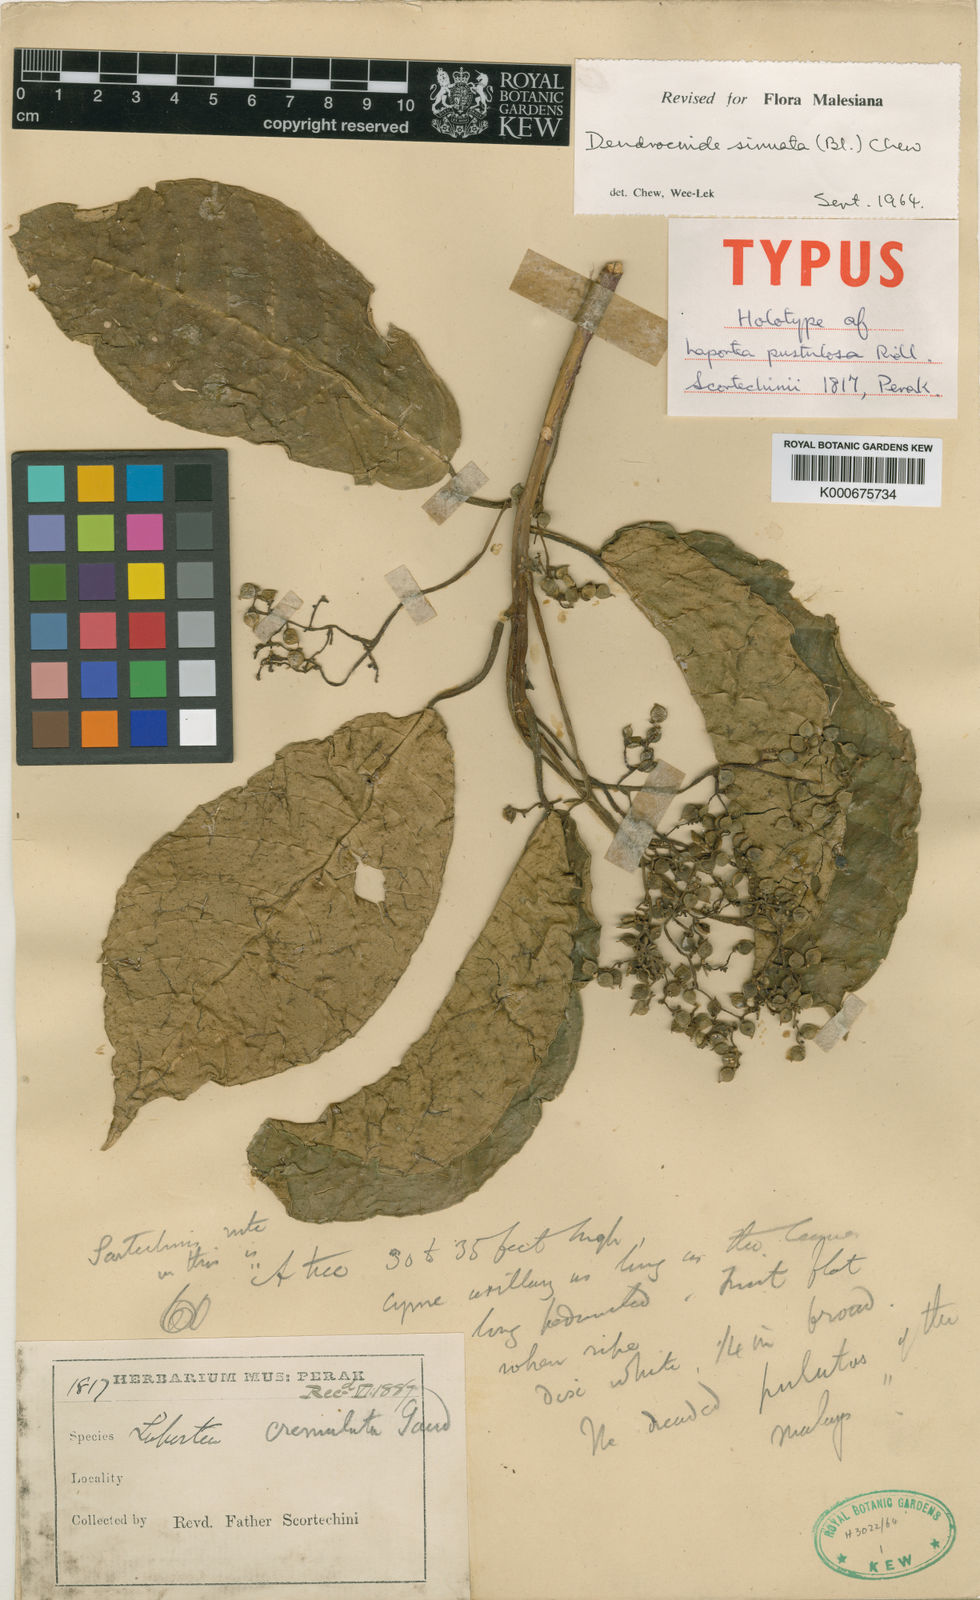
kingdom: Plantae
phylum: Tracheophyta
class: Magnoliopsida
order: Rosales
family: Urticaceae
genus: Dendrocnide
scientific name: Dendrocnide sinuata
